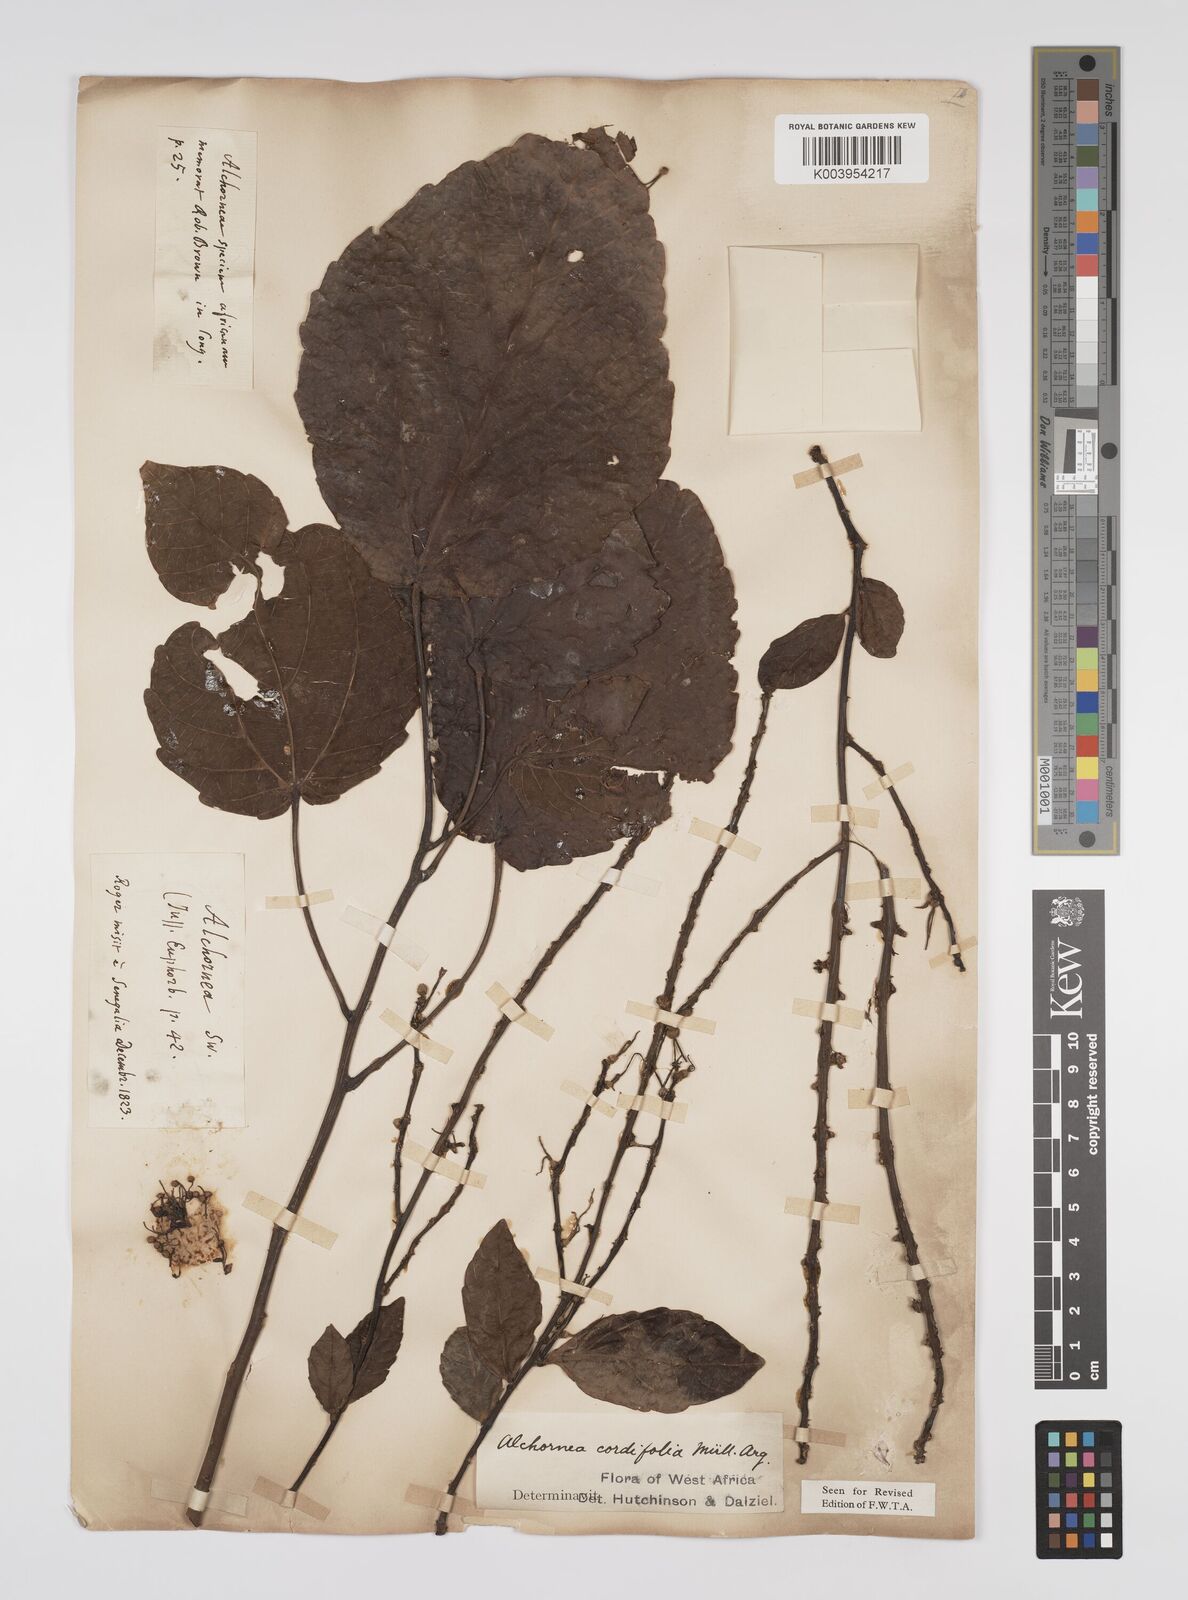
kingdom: Plantae
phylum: Tracheophyta
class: Magnoliopsida
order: Malpighiales
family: Euphorbiaceae
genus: Alchornea
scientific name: Alchornea cordifolia
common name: Christmasbush
